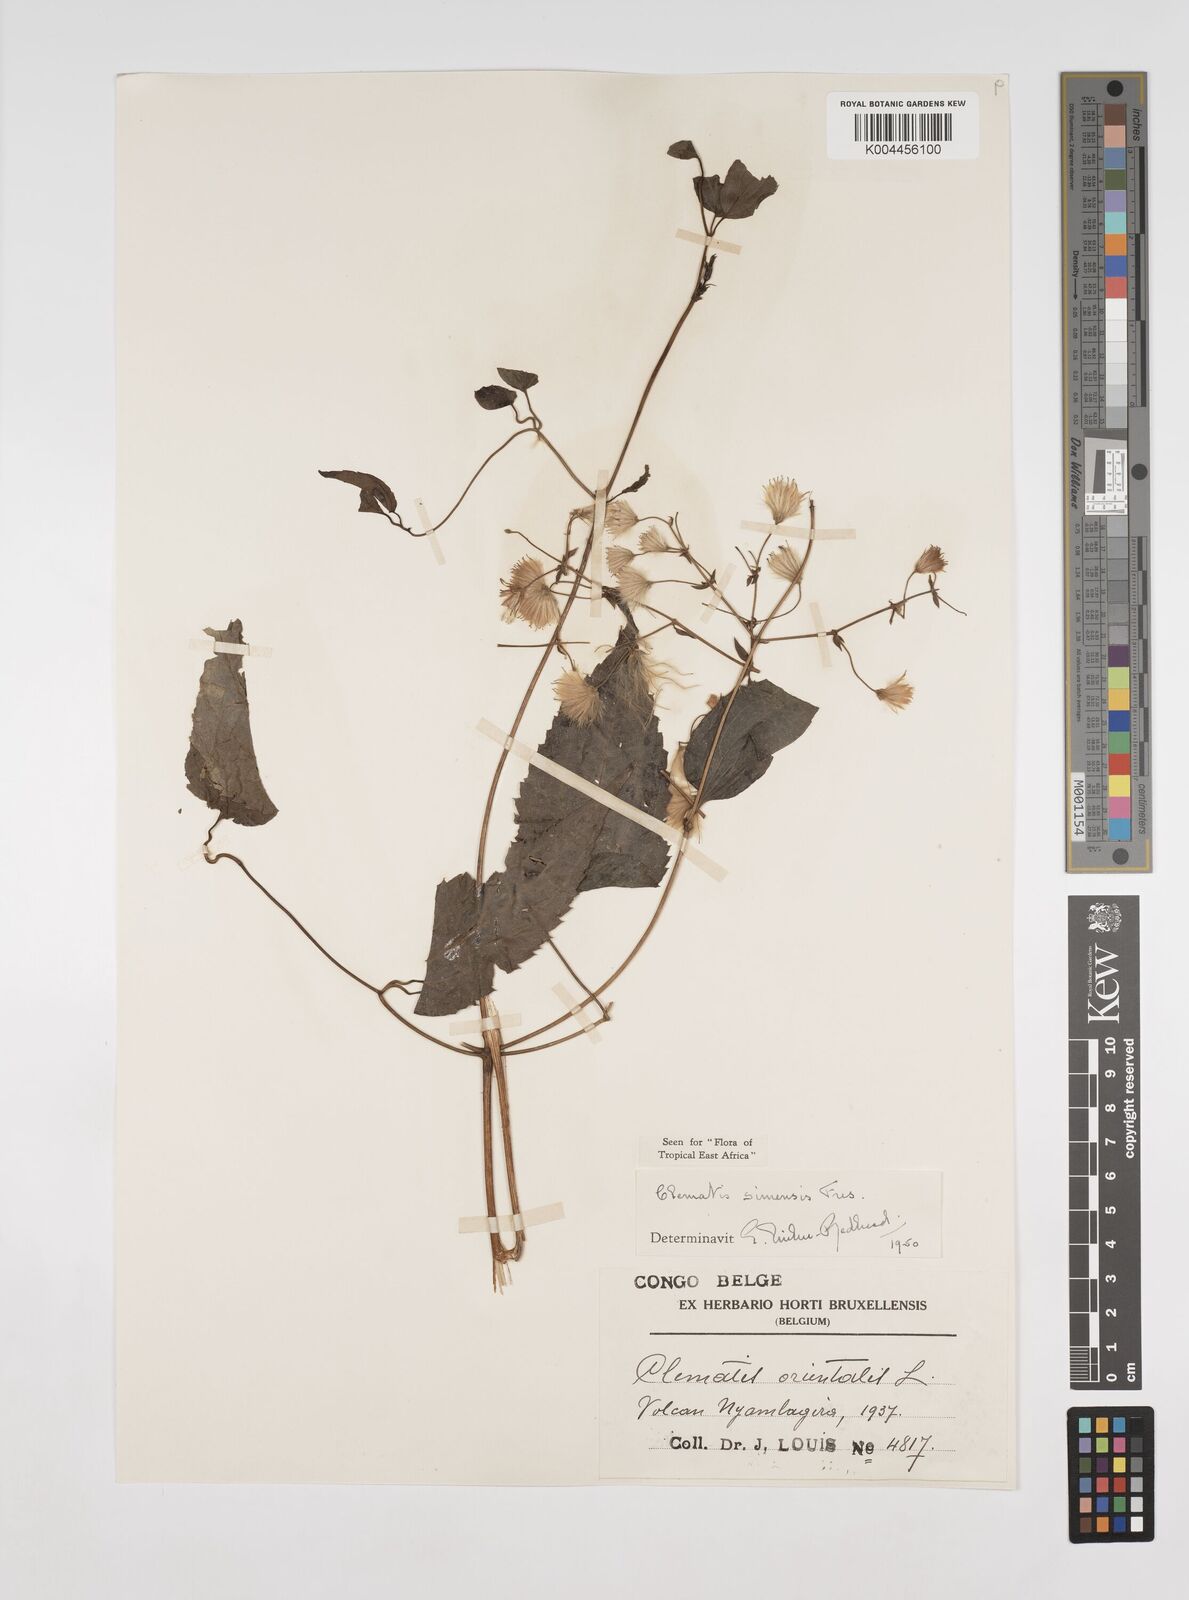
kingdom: Plantae
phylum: Tracheophyta
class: Magnoliopsida
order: Ranunculales
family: Ranunculaceae
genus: Clematis
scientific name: Clematis simensis
